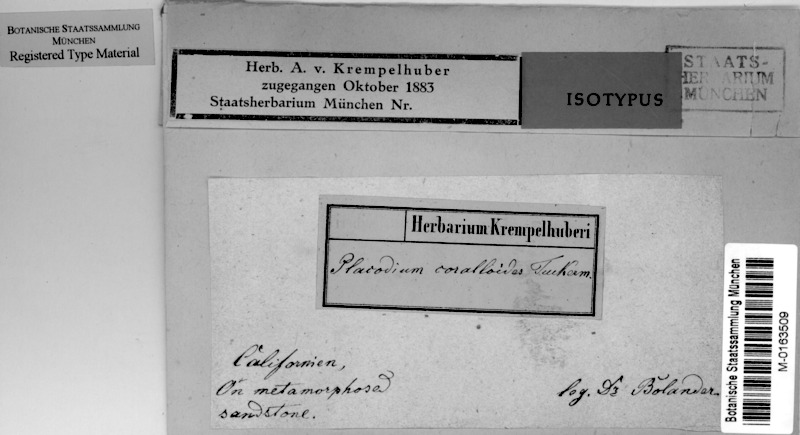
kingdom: Fungi
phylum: Ascomycota
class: Lecanoromycetes
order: Teloschistales
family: Teloschistaceae
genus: Polycauliona
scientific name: Polycauliona coralloides
